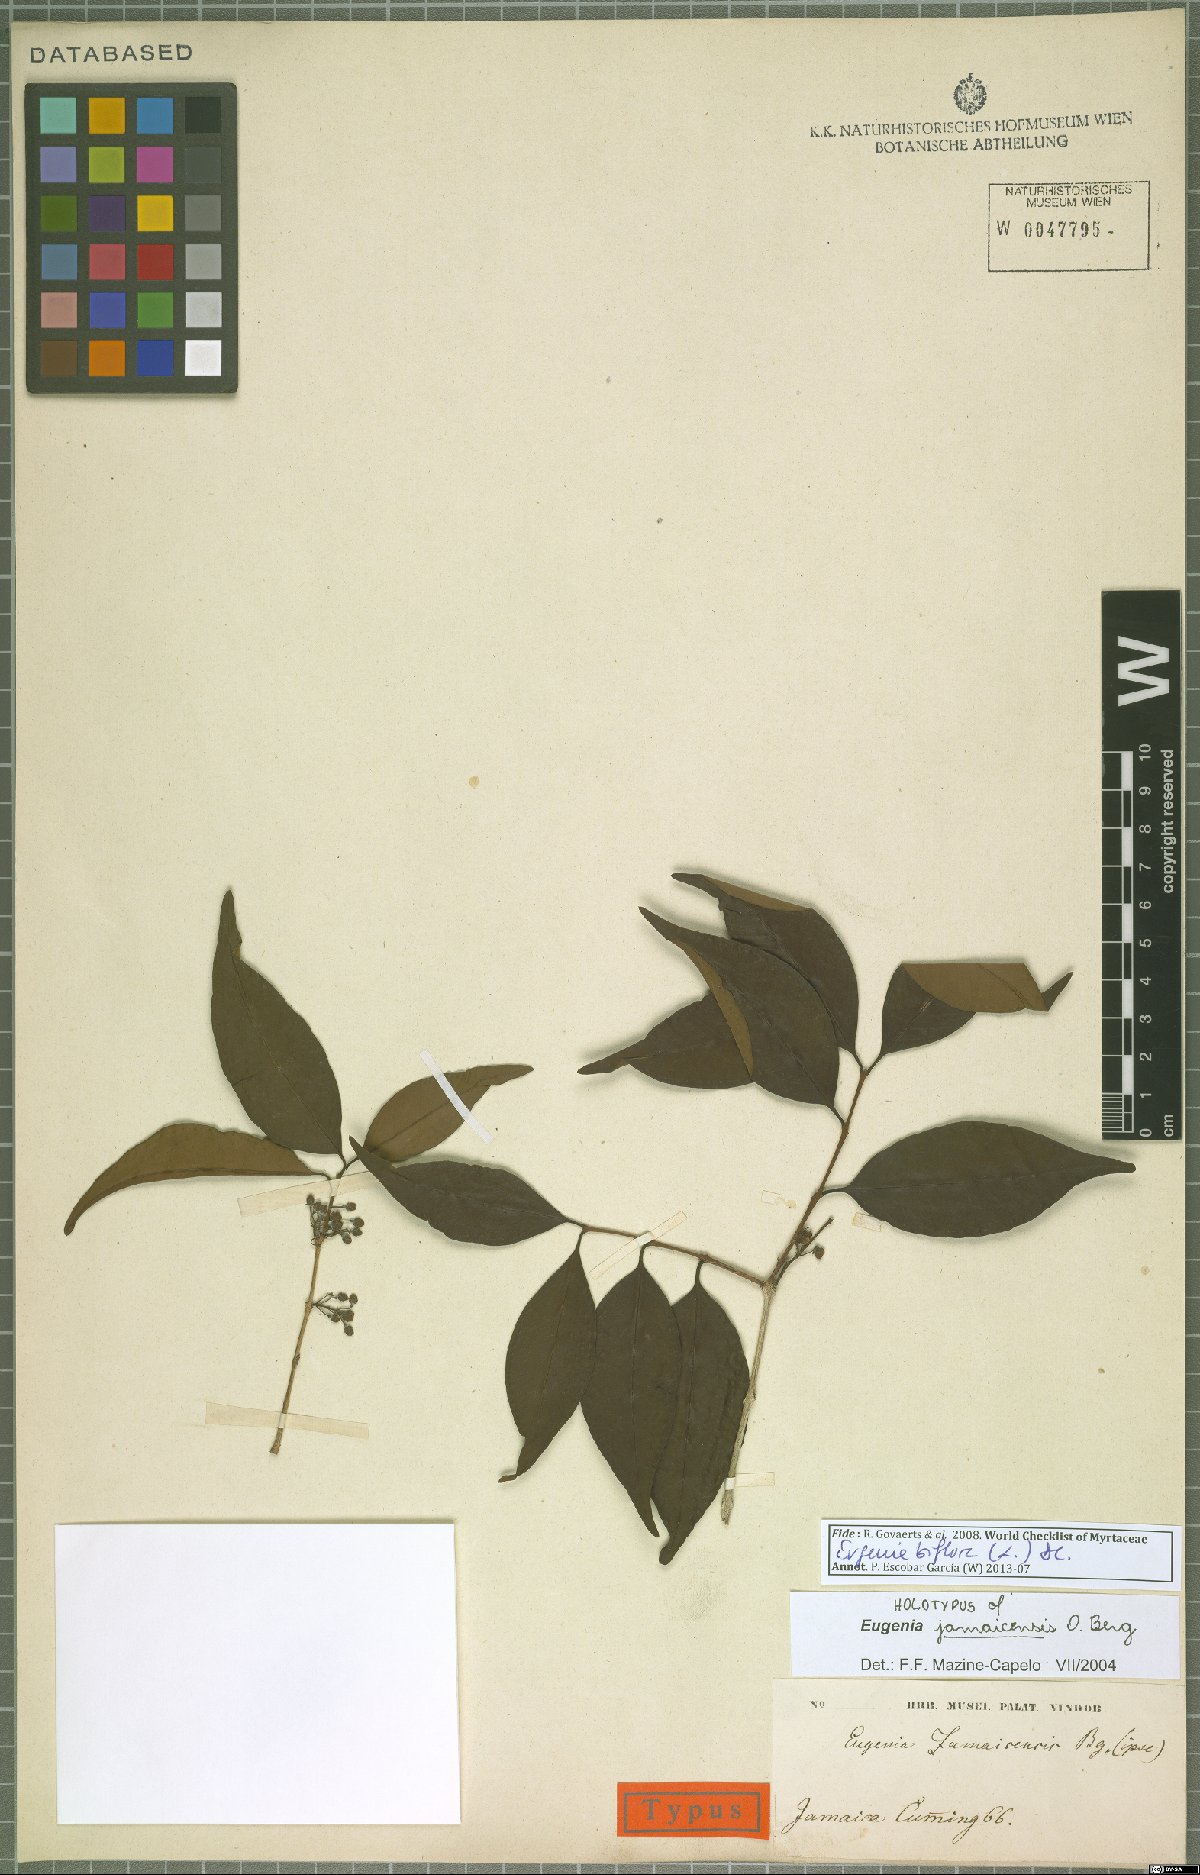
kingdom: Plantae
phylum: Tracheophyta
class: Magnoliopsida
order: Myrtales
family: Myrtaceae
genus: Eugenia
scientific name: Eugenia biflora
